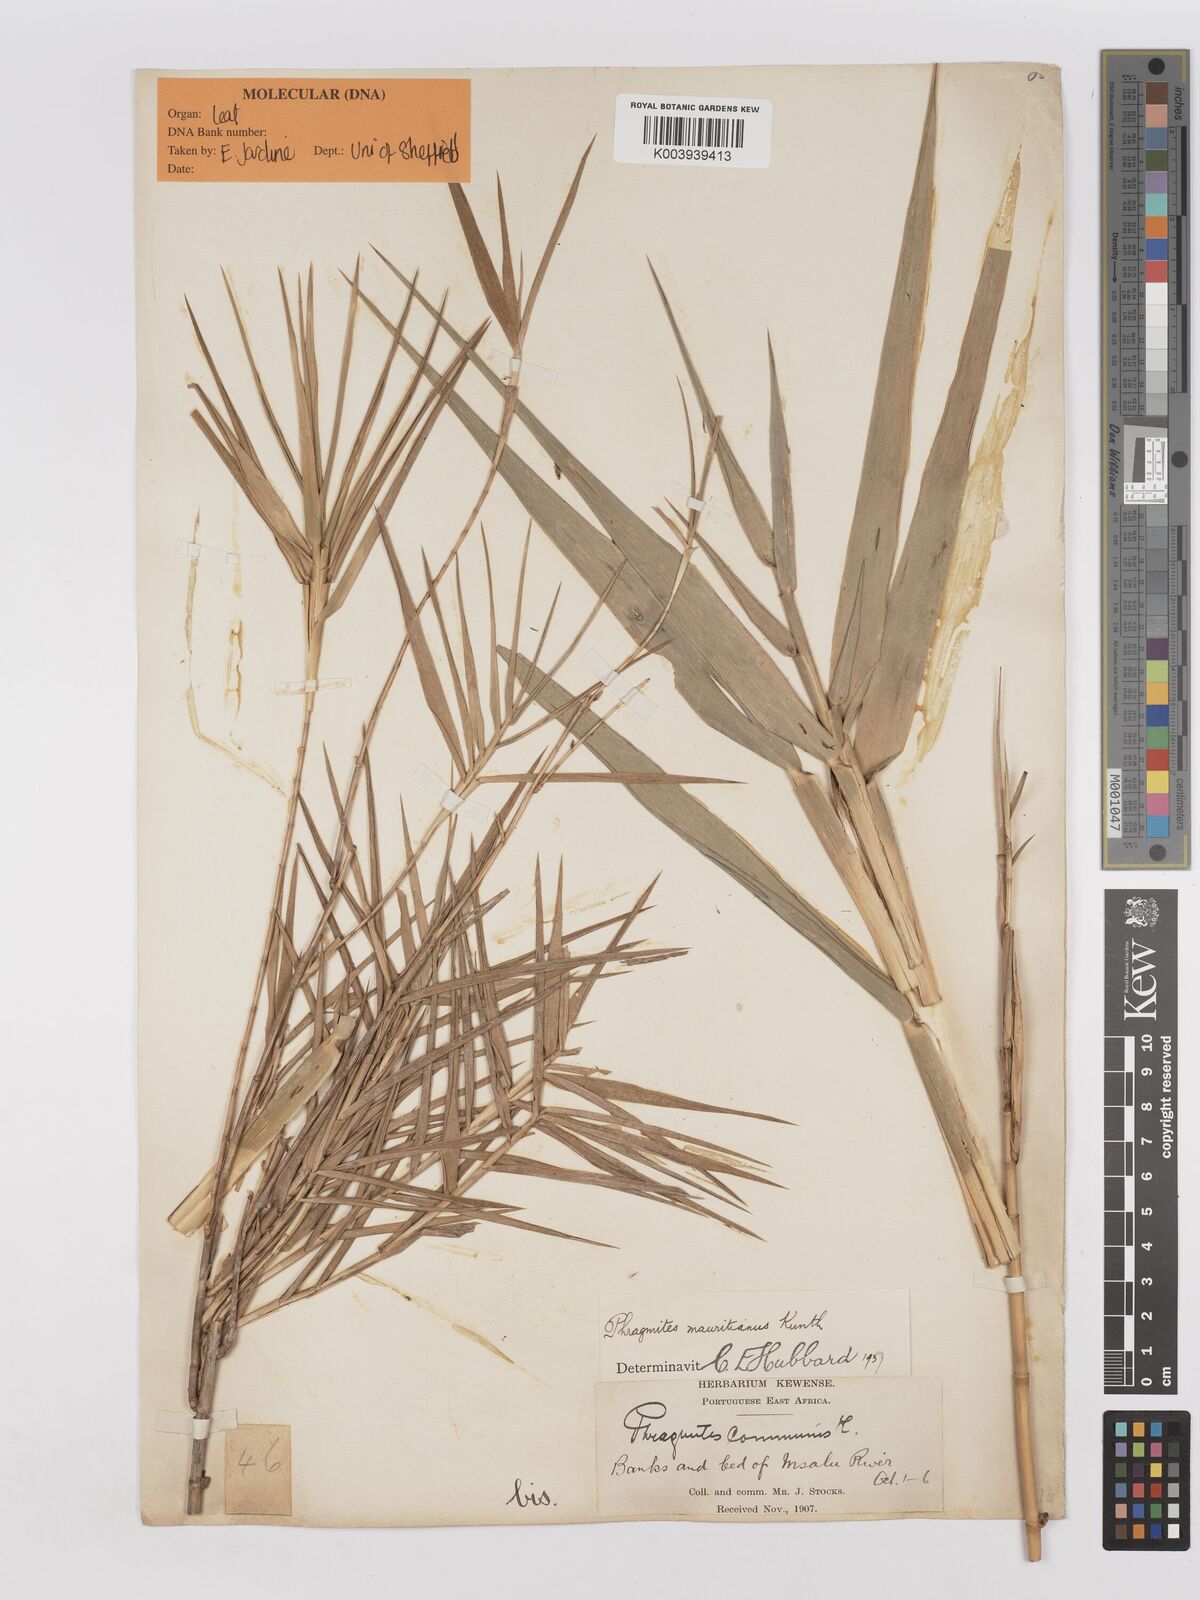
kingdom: Plantae
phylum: Tracheophyta
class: Liliopsida
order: Poales
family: Poaceae
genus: Phragmites
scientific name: Phragmites mauritianus
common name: Reed grass
